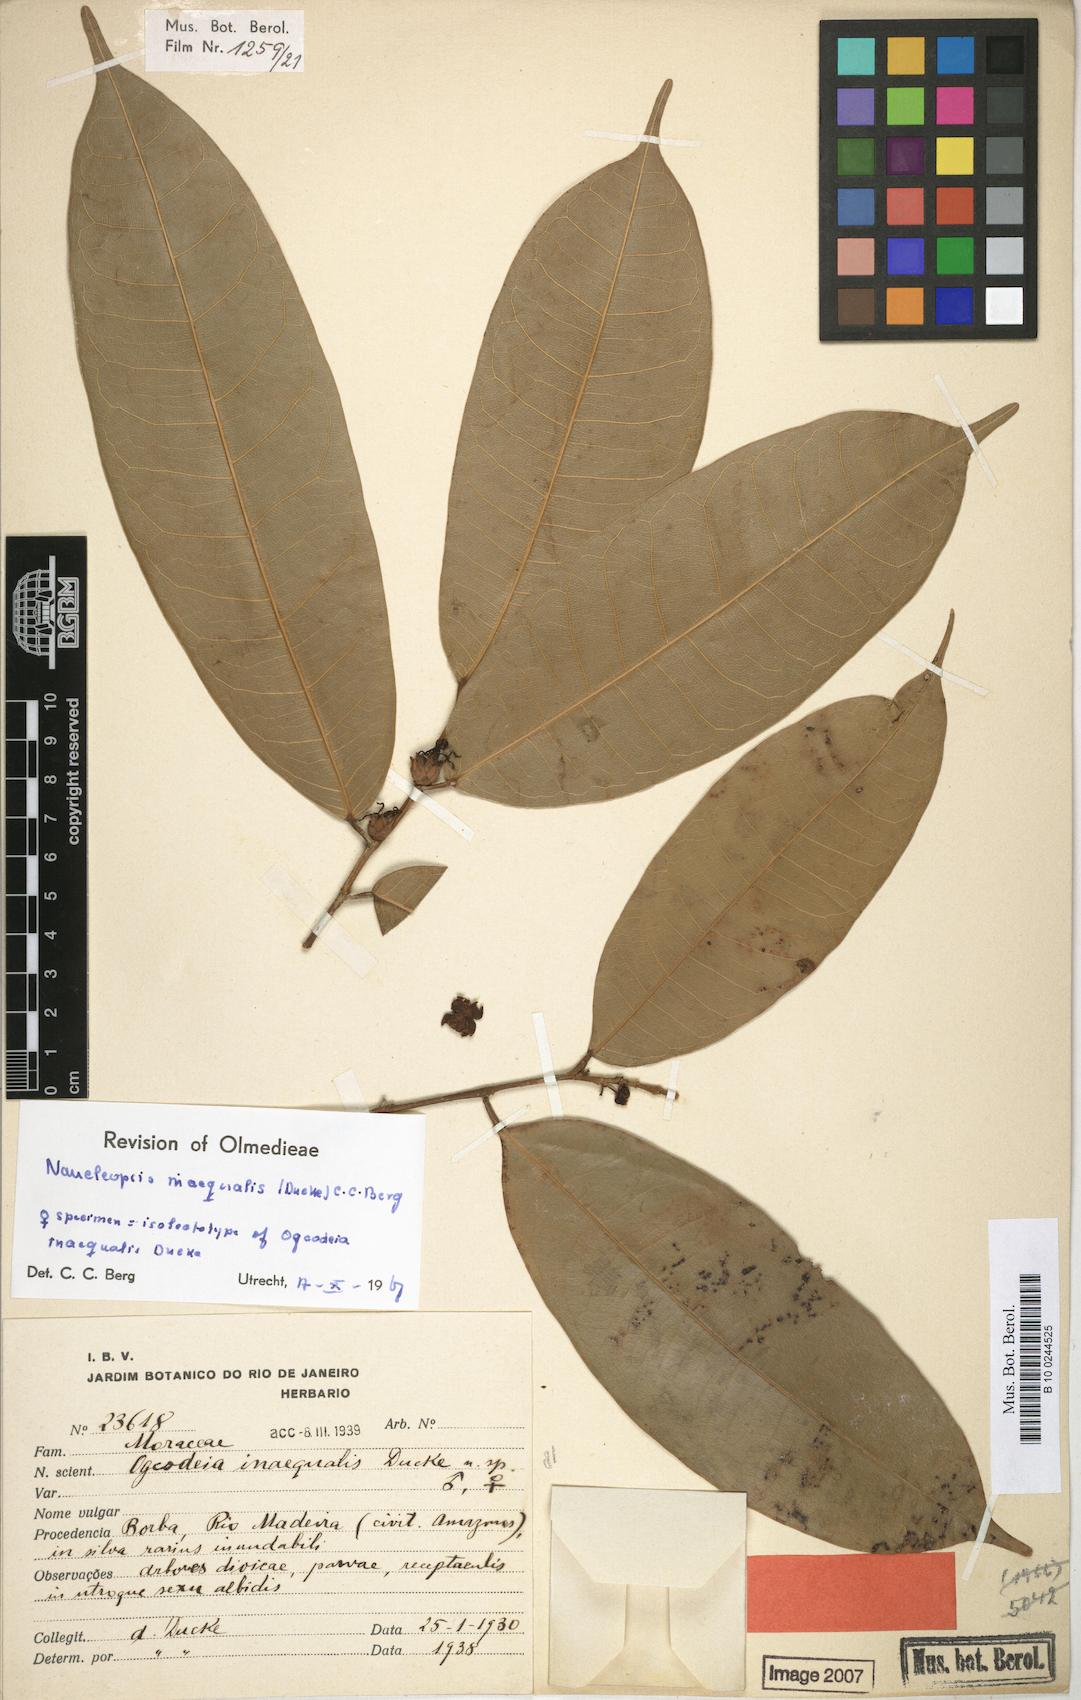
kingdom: Plantae
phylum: Tracheophyta
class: Magnoliopsida
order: Rosales
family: Moraceae
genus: Naucleopsis
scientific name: Naucleopsis inaequalis
